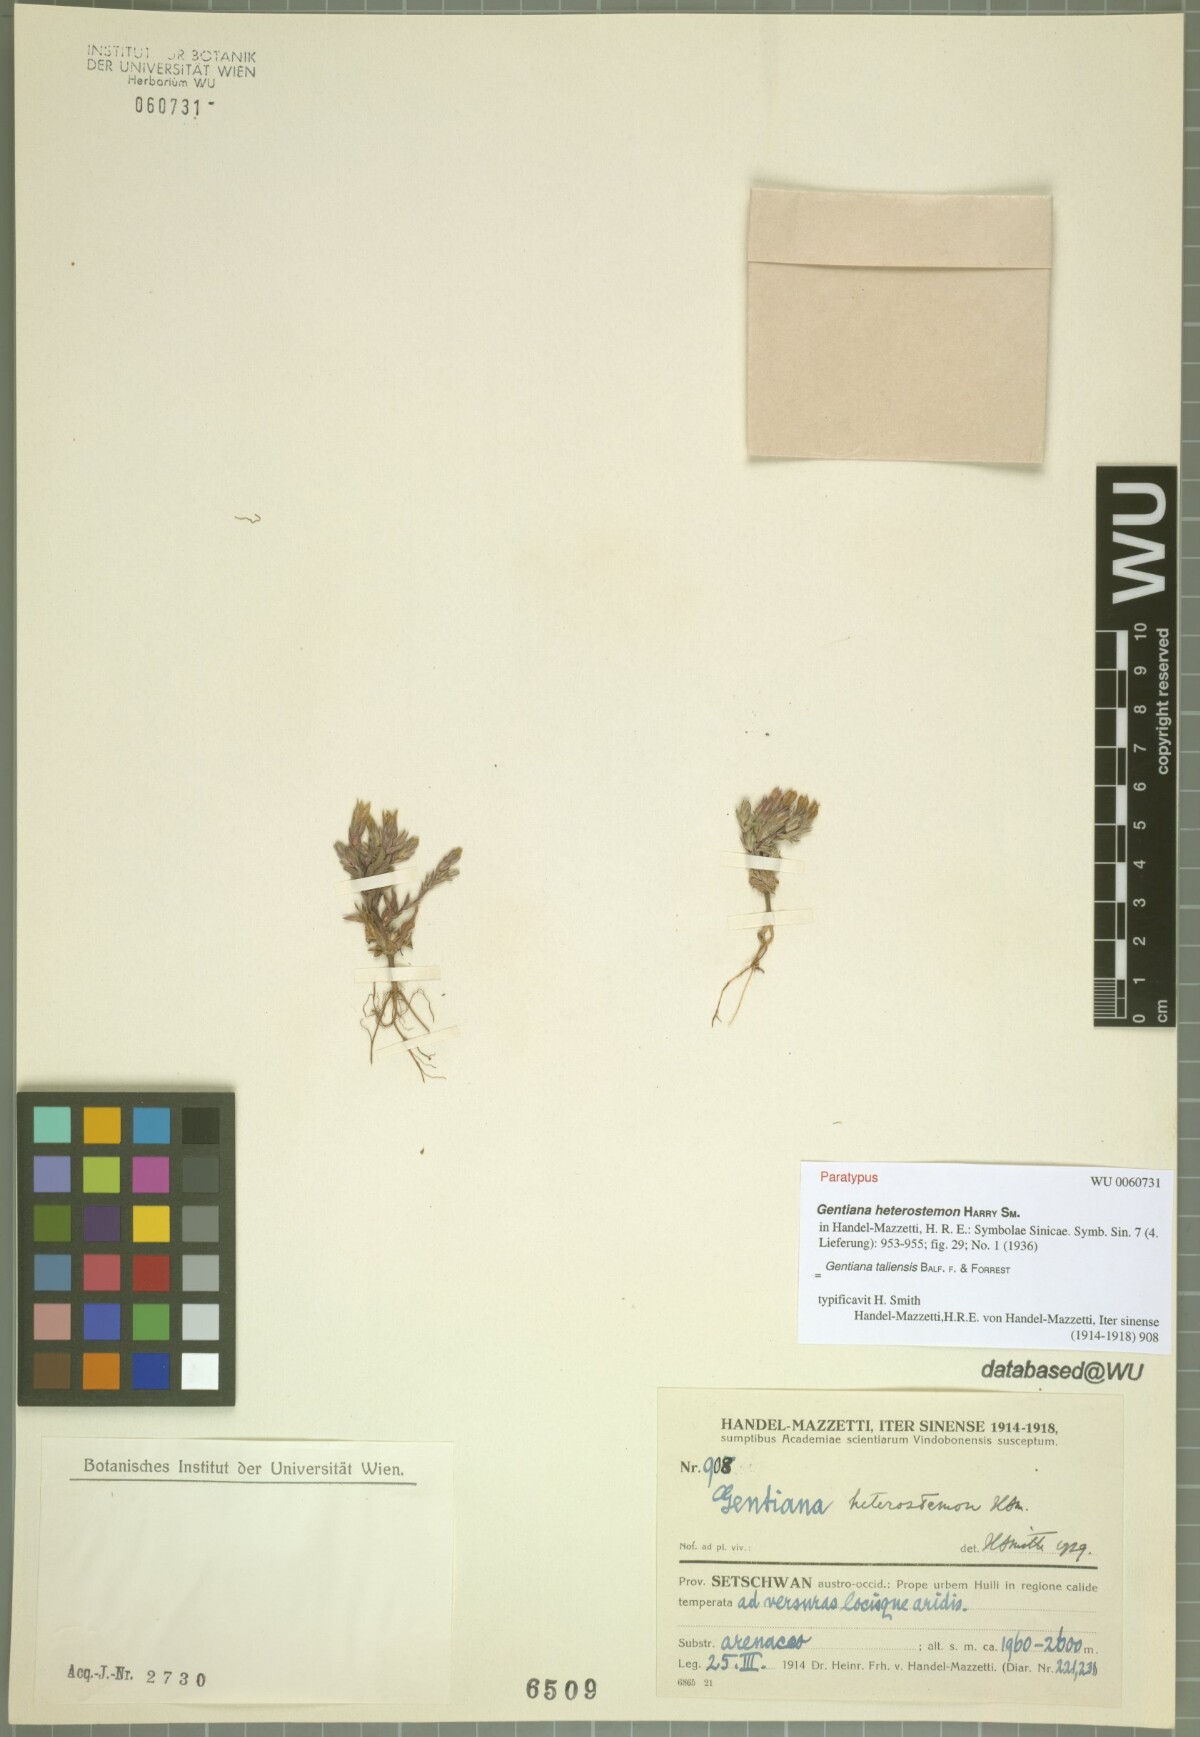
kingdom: Plantae
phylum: Tracheophyta
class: Magnoliopsida
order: Gentianales
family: Gentianaceae
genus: Gentiana
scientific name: Gentiana taliensis
